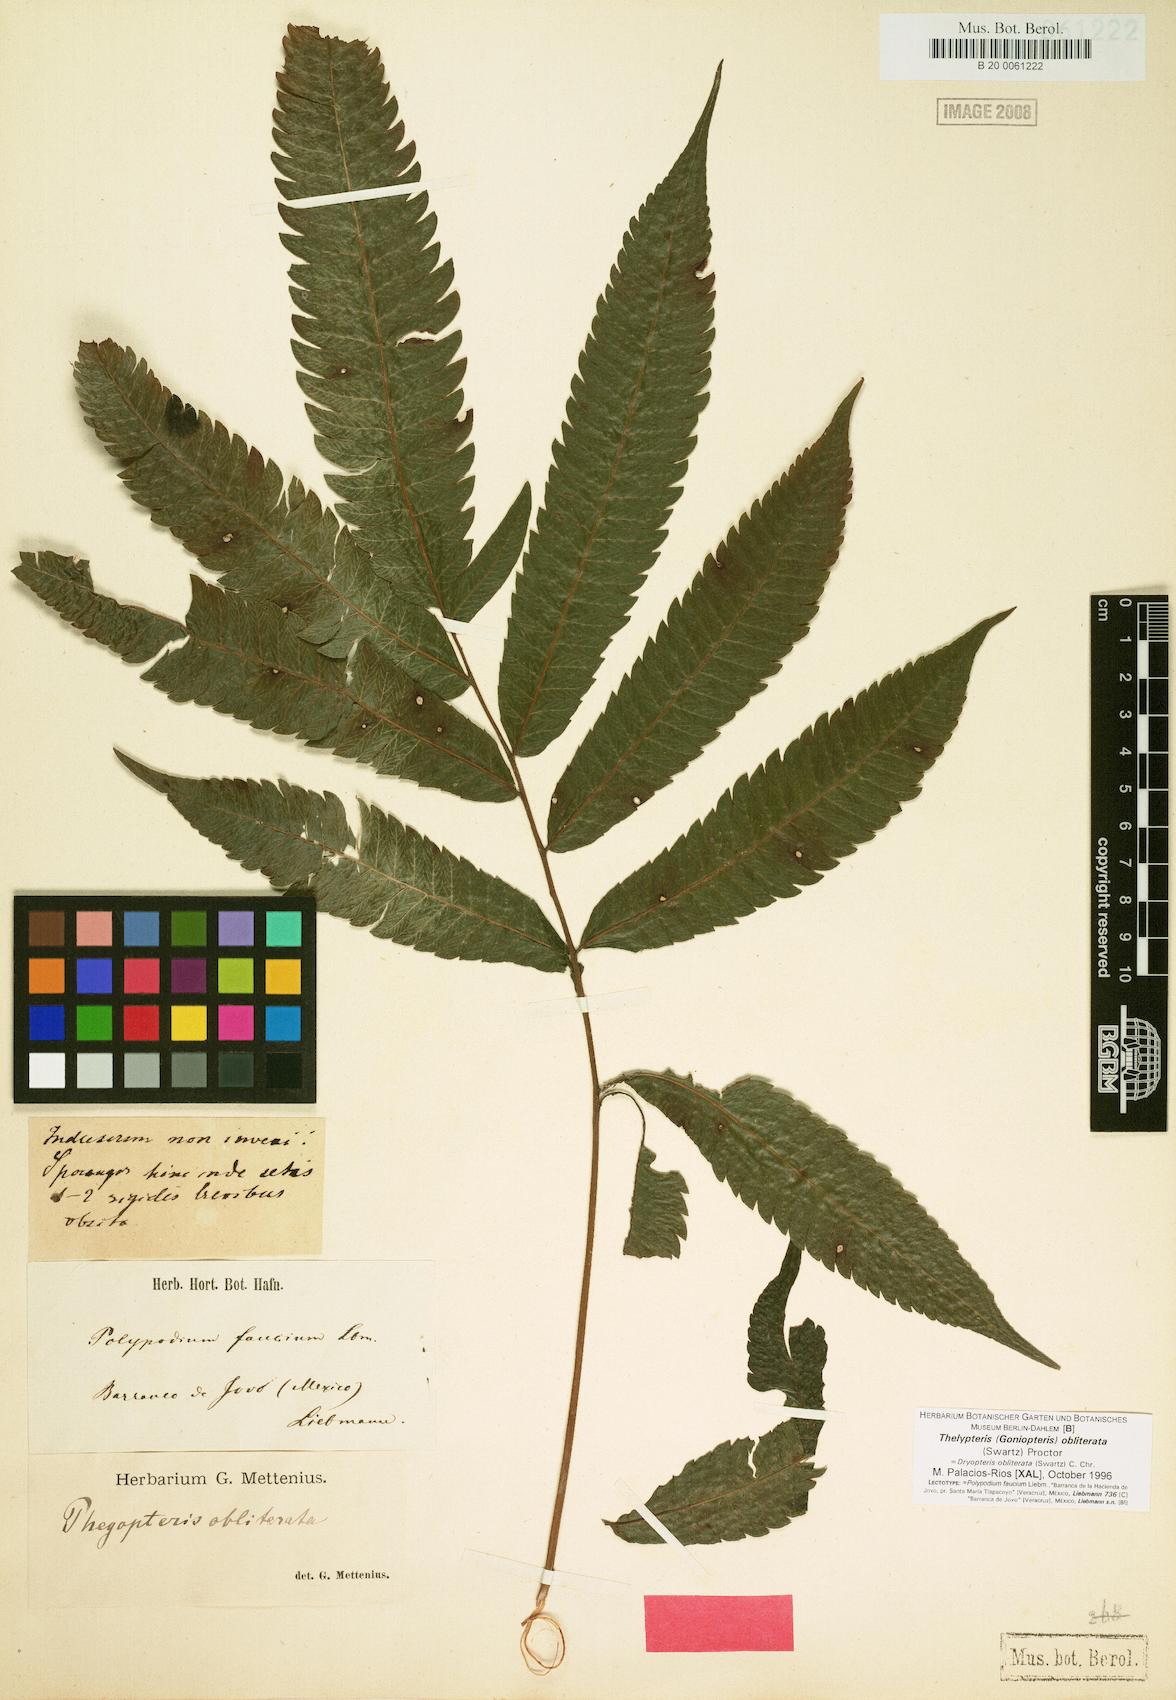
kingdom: Plantae
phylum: Tracheophyta
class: Polypodiopsida
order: Polypodiales
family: Thelypteridaceae
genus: Goniopteris
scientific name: Goniopteris obliterata
